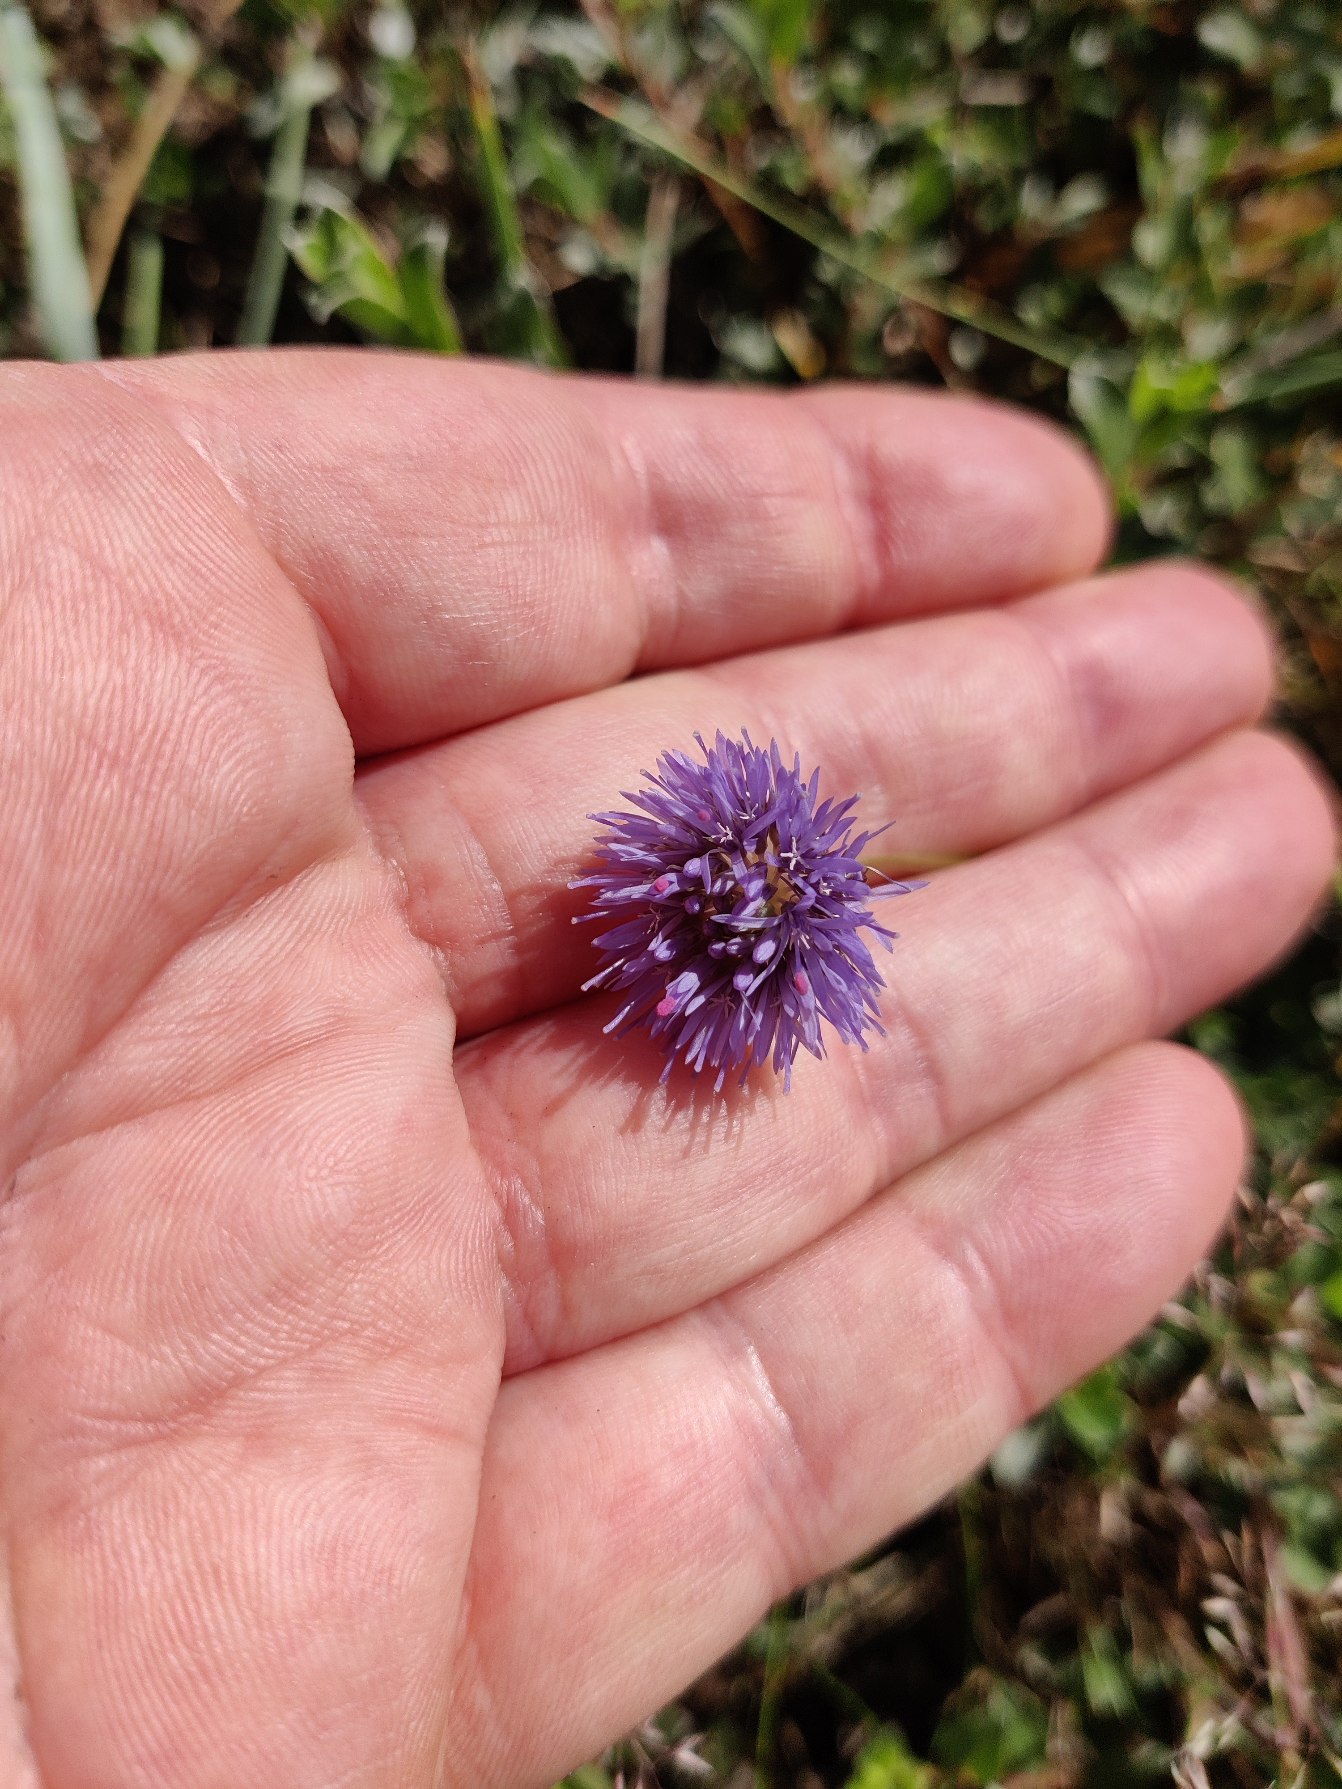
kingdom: Plantae
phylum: Tracheophyta
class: Magnoliopsida
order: Asterales
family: Campanulaceae
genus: Jasione
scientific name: Jasione montana
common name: Blåmunke
